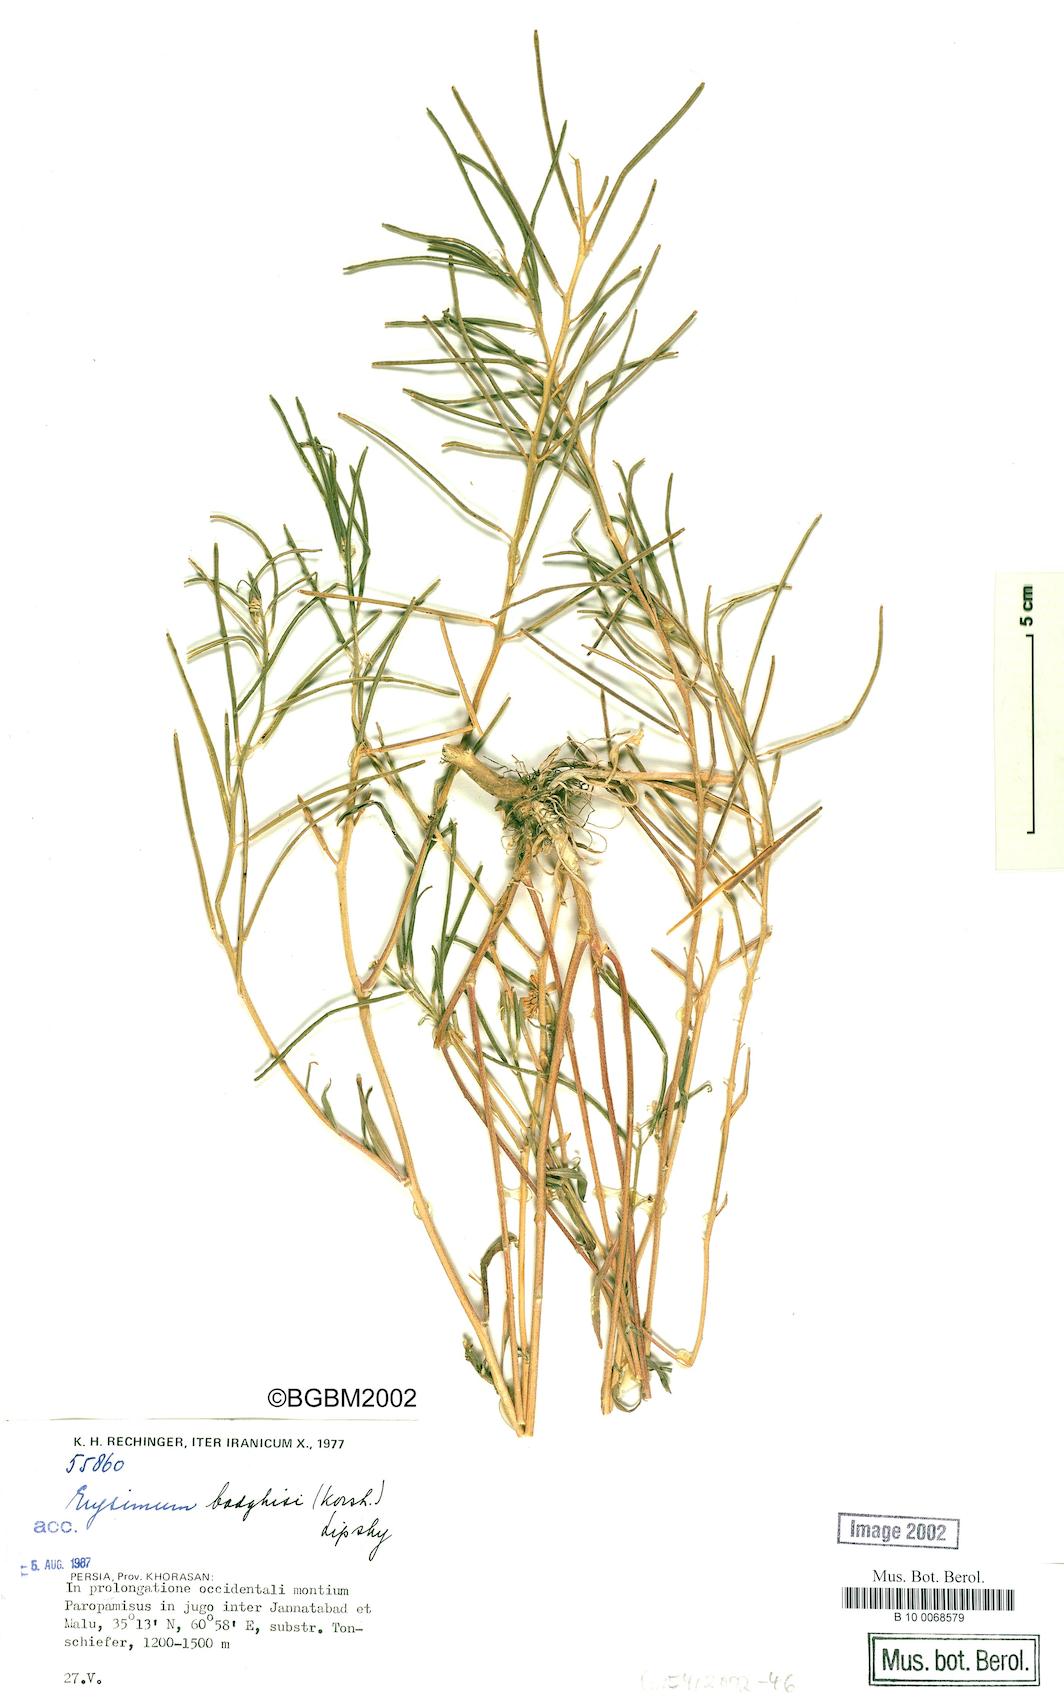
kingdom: Plantae
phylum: Tracheophyta
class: Magnoliopsida
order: Brassicales
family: Brassicaceae
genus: Erysimum
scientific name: Erysimum badghysi
